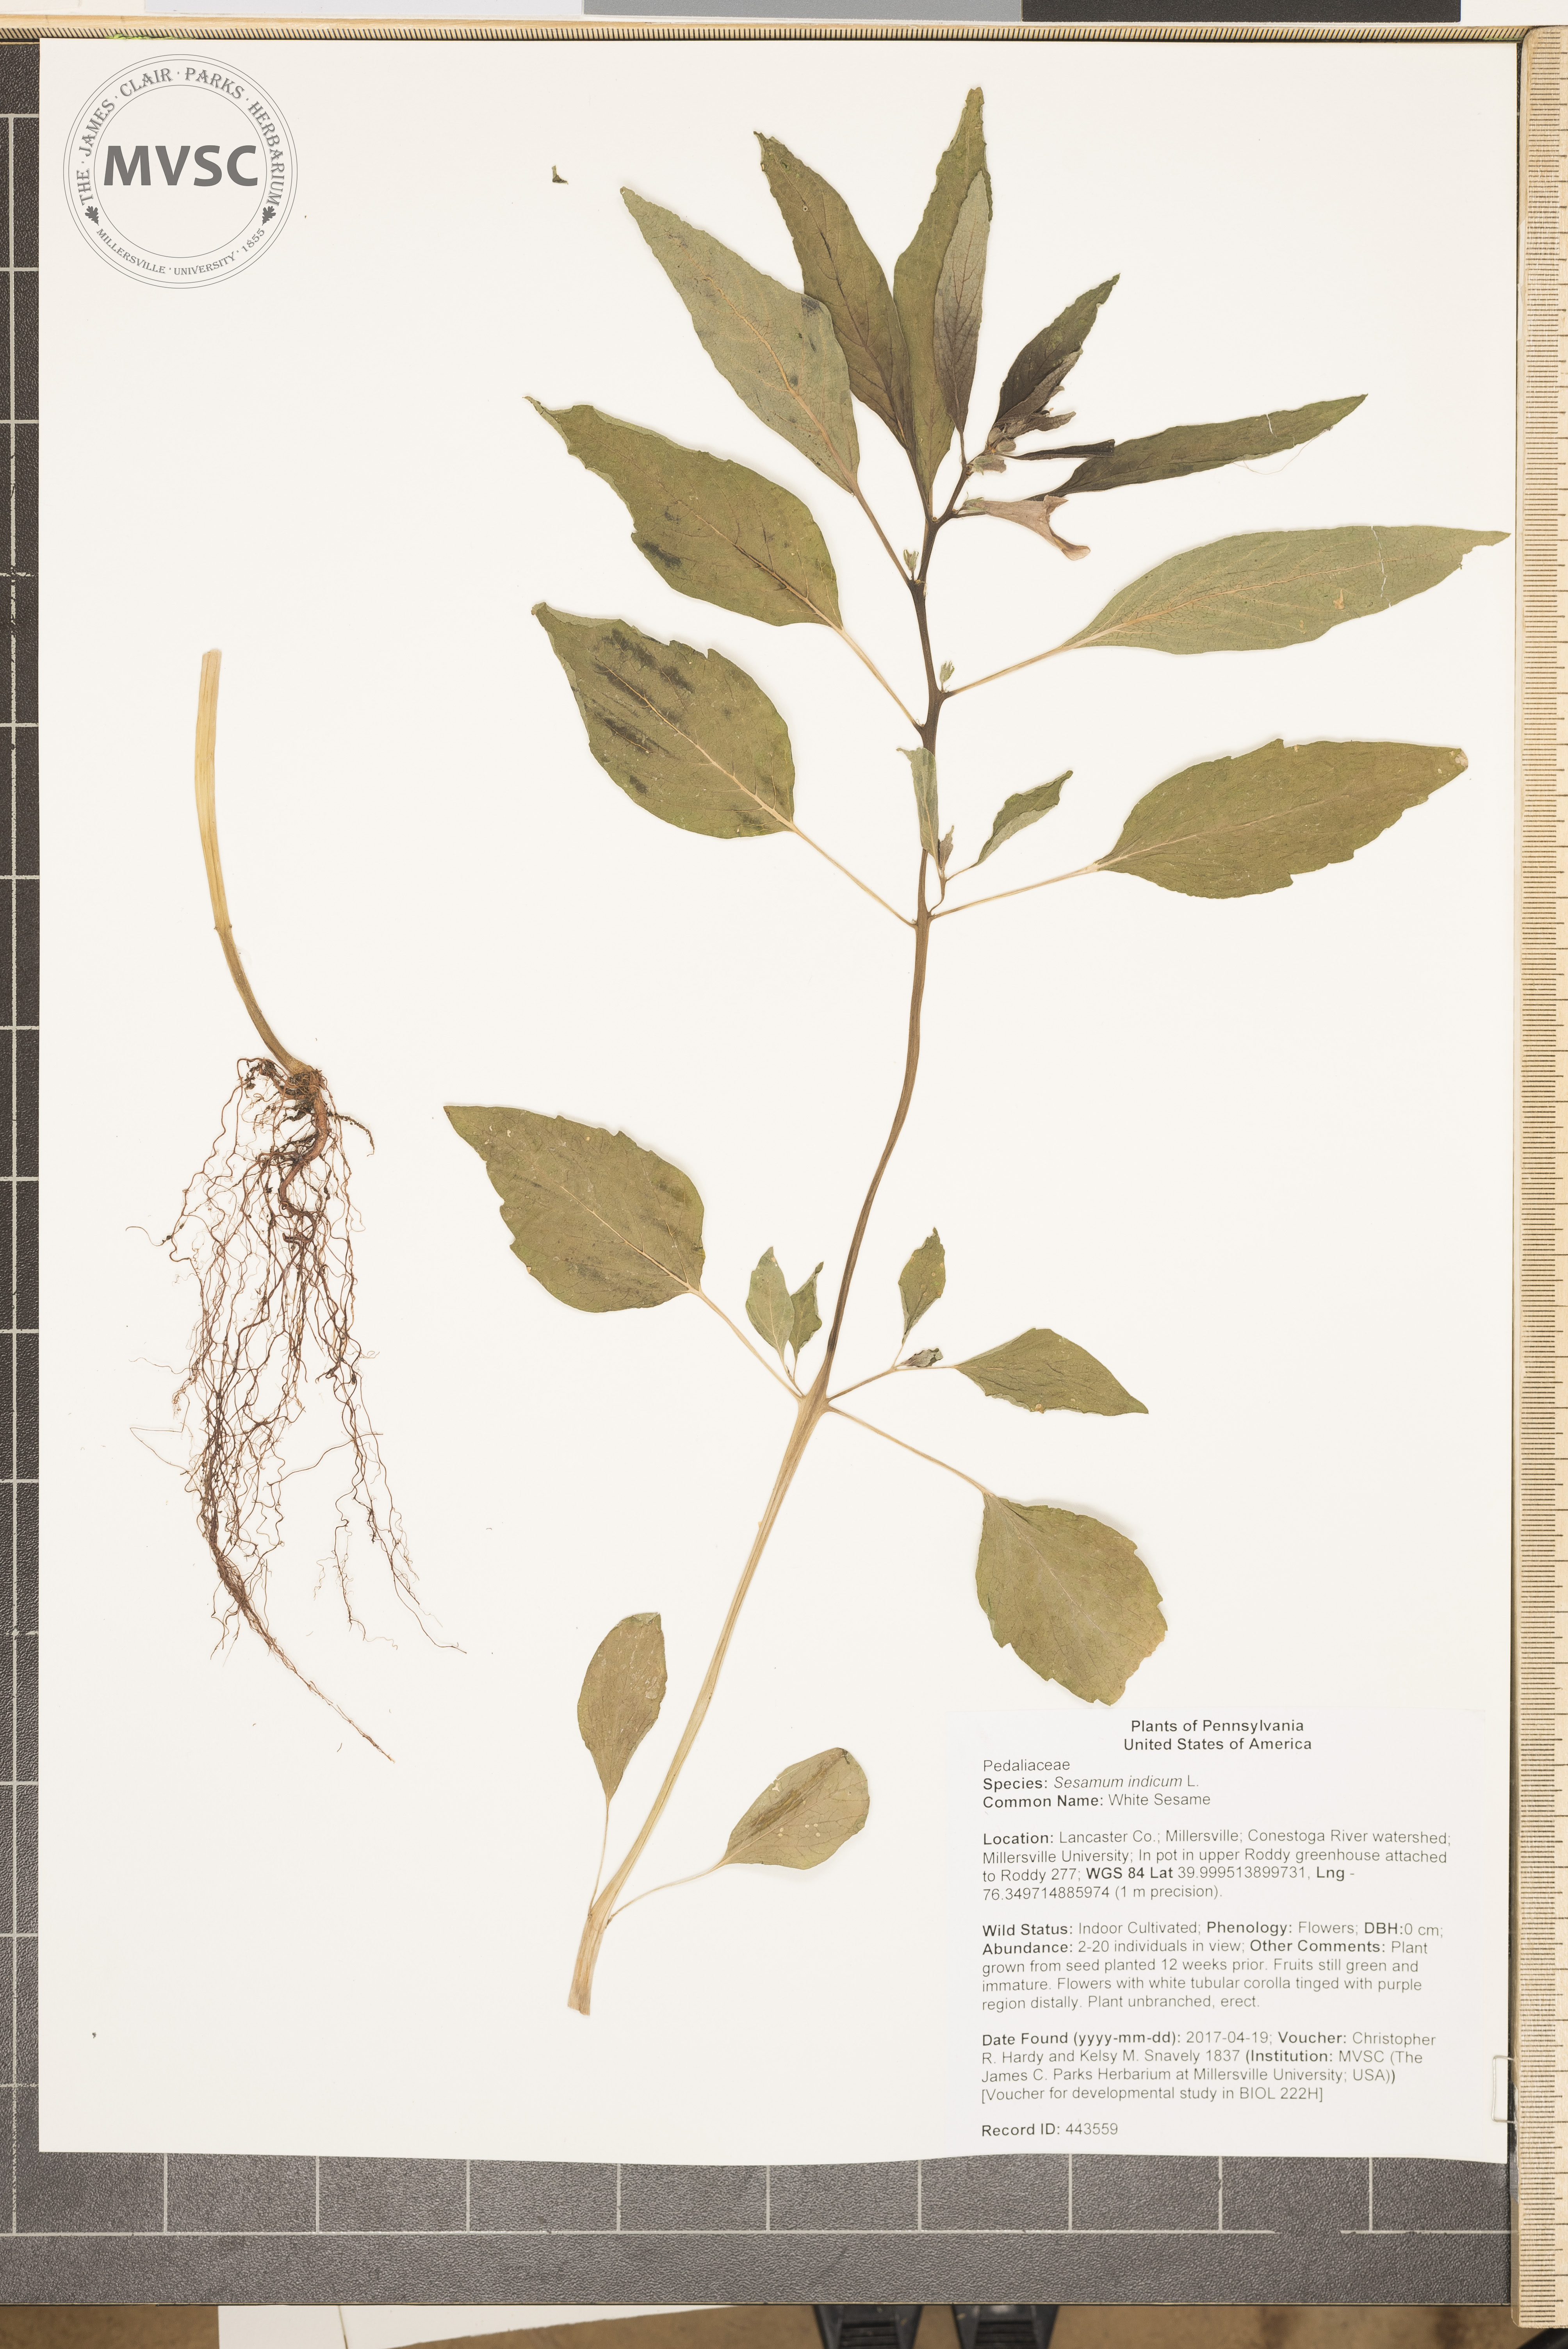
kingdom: Plantae
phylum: Tracheophyta
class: Magnoliopsida
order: Lamiales
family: Pedaliaceae
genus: Sesamum
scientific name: Sesamum indicum
